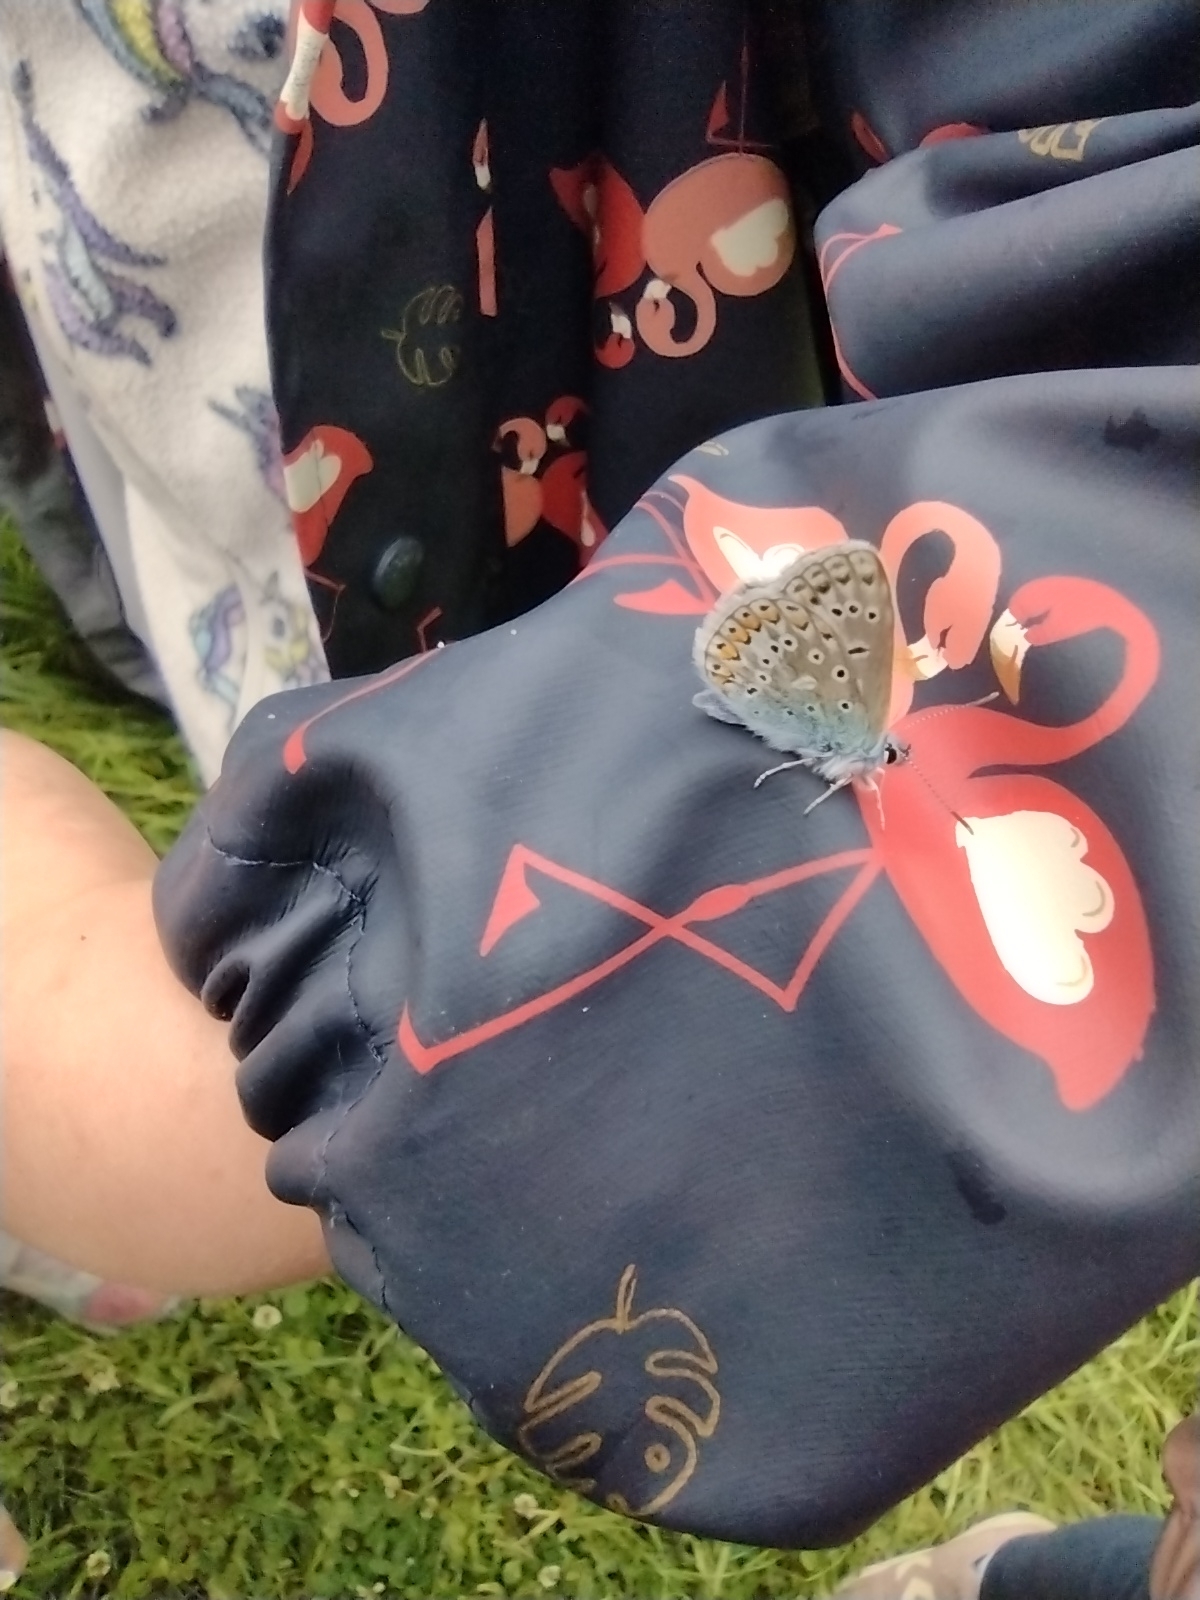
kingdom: Animalia
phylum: Arthropoda
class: Insecta
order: Lepidoptera
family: Lycaenidae
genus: Polyommatus
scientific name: Polyommatus icarus
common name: Almindelig blåfugl
